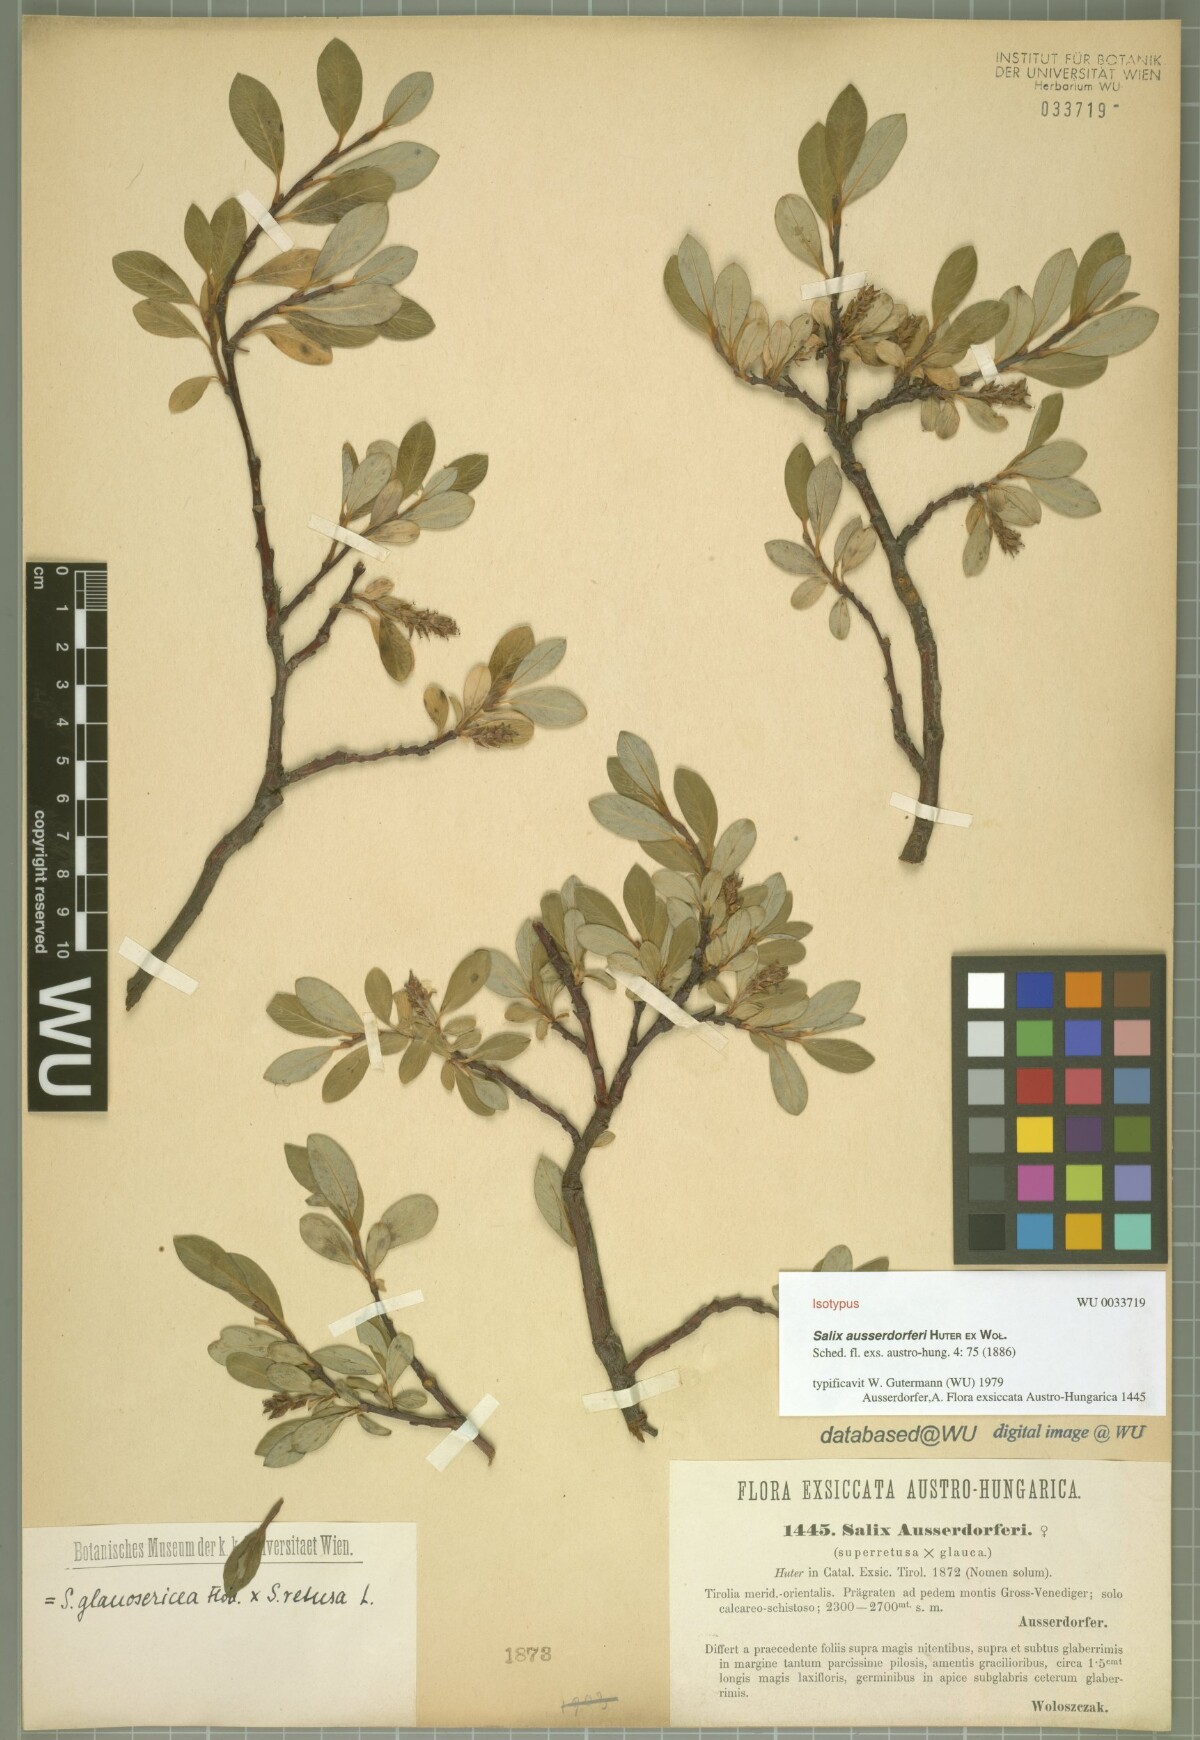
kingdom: Plantae
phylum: Tracheophyta
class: Magnoliopsida
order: Malpighiales
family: Salicaceae
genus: Salix
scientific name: Salix ausserdorferi
